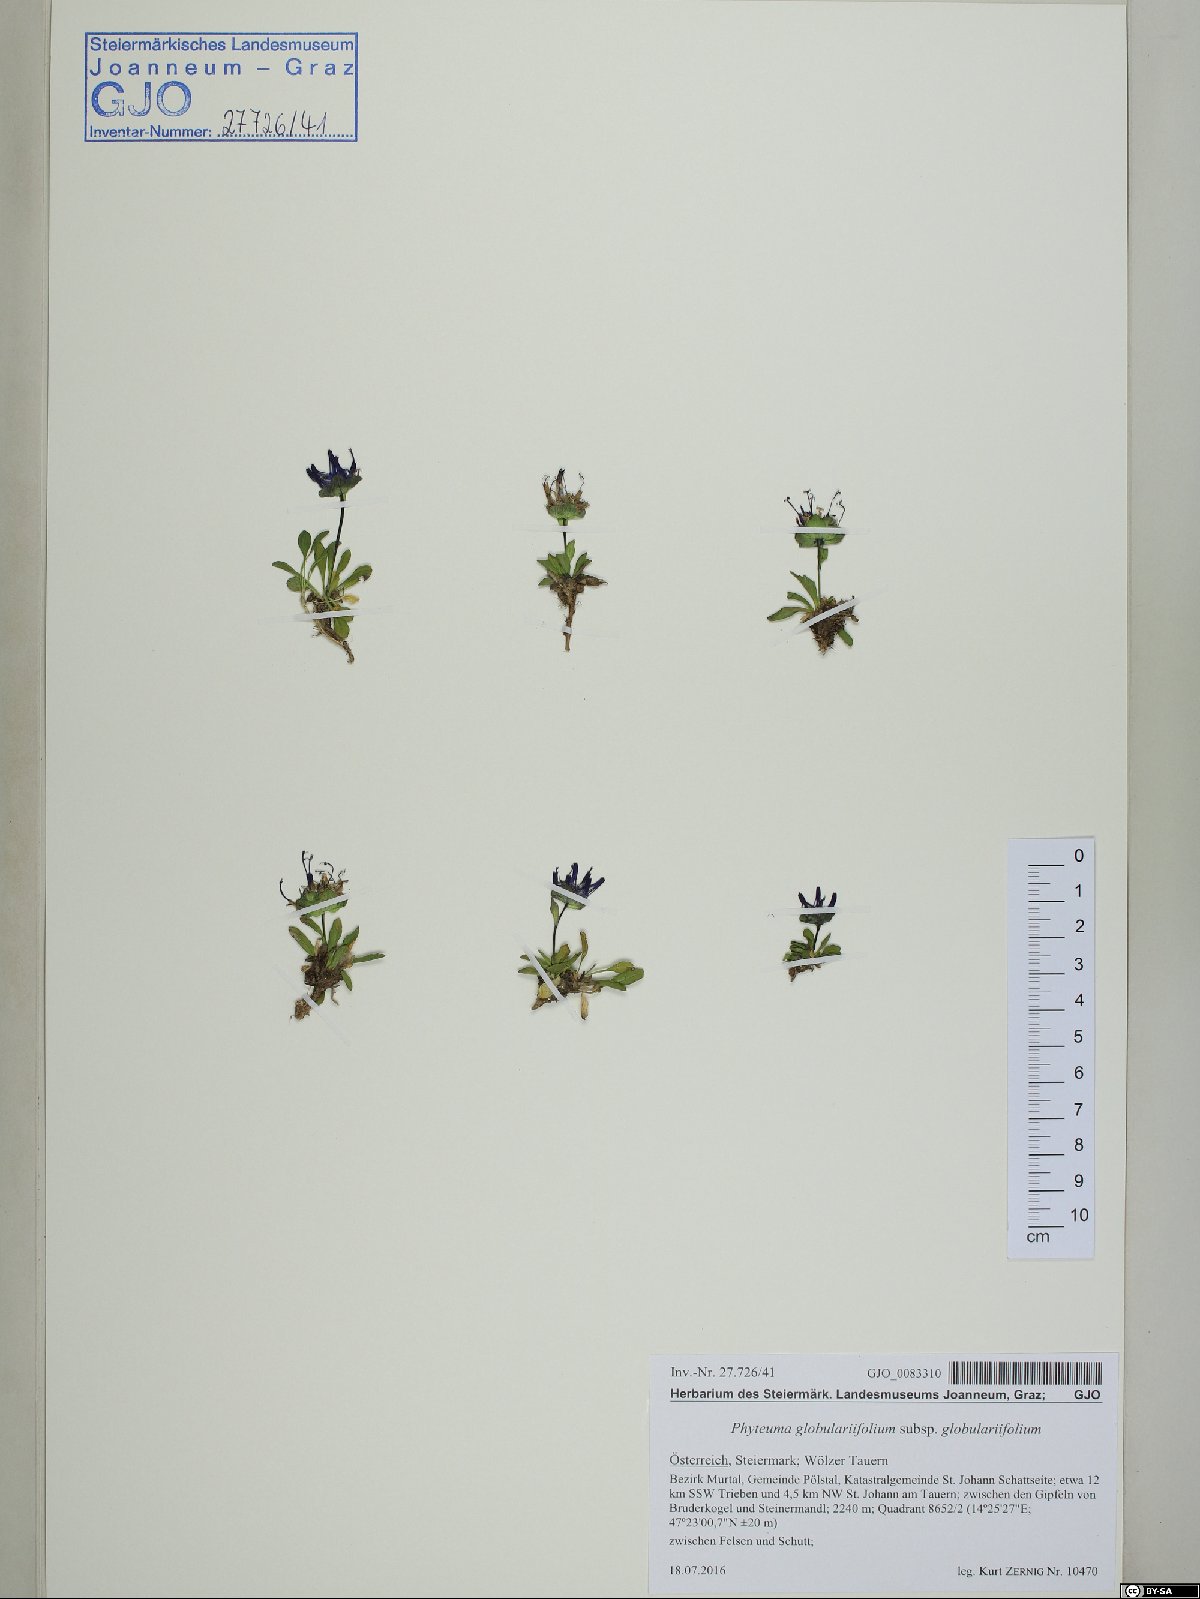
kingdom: Plantae
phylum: Tracheophyta
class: Magnoliopsida
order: Asterales
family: Campanulaceae
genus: Phyteuma
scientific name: Phyteuma globulariifolium
